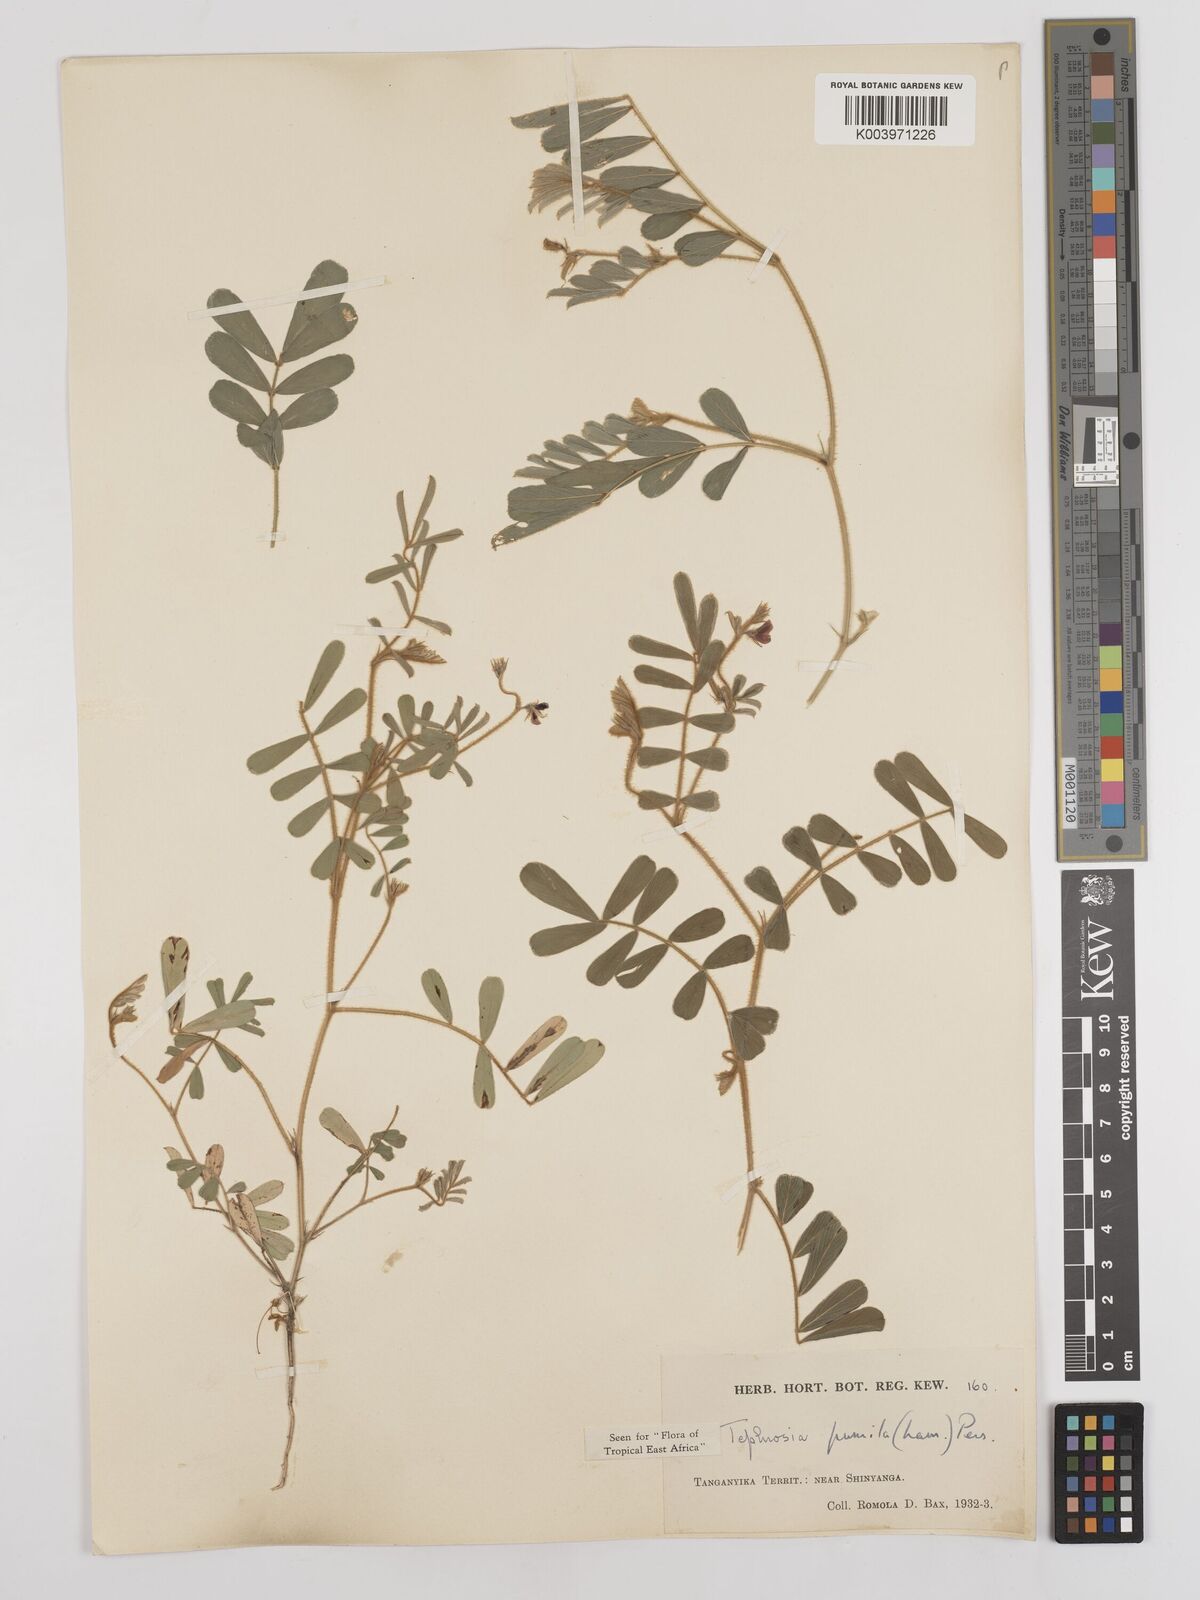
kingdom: Plantae
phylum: Tracheophyta
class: Magnoliopsida
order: Fabales
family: Fabaceae
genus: Tephrosia
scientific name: Tephrosia pumila
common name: Indigo sauvage
